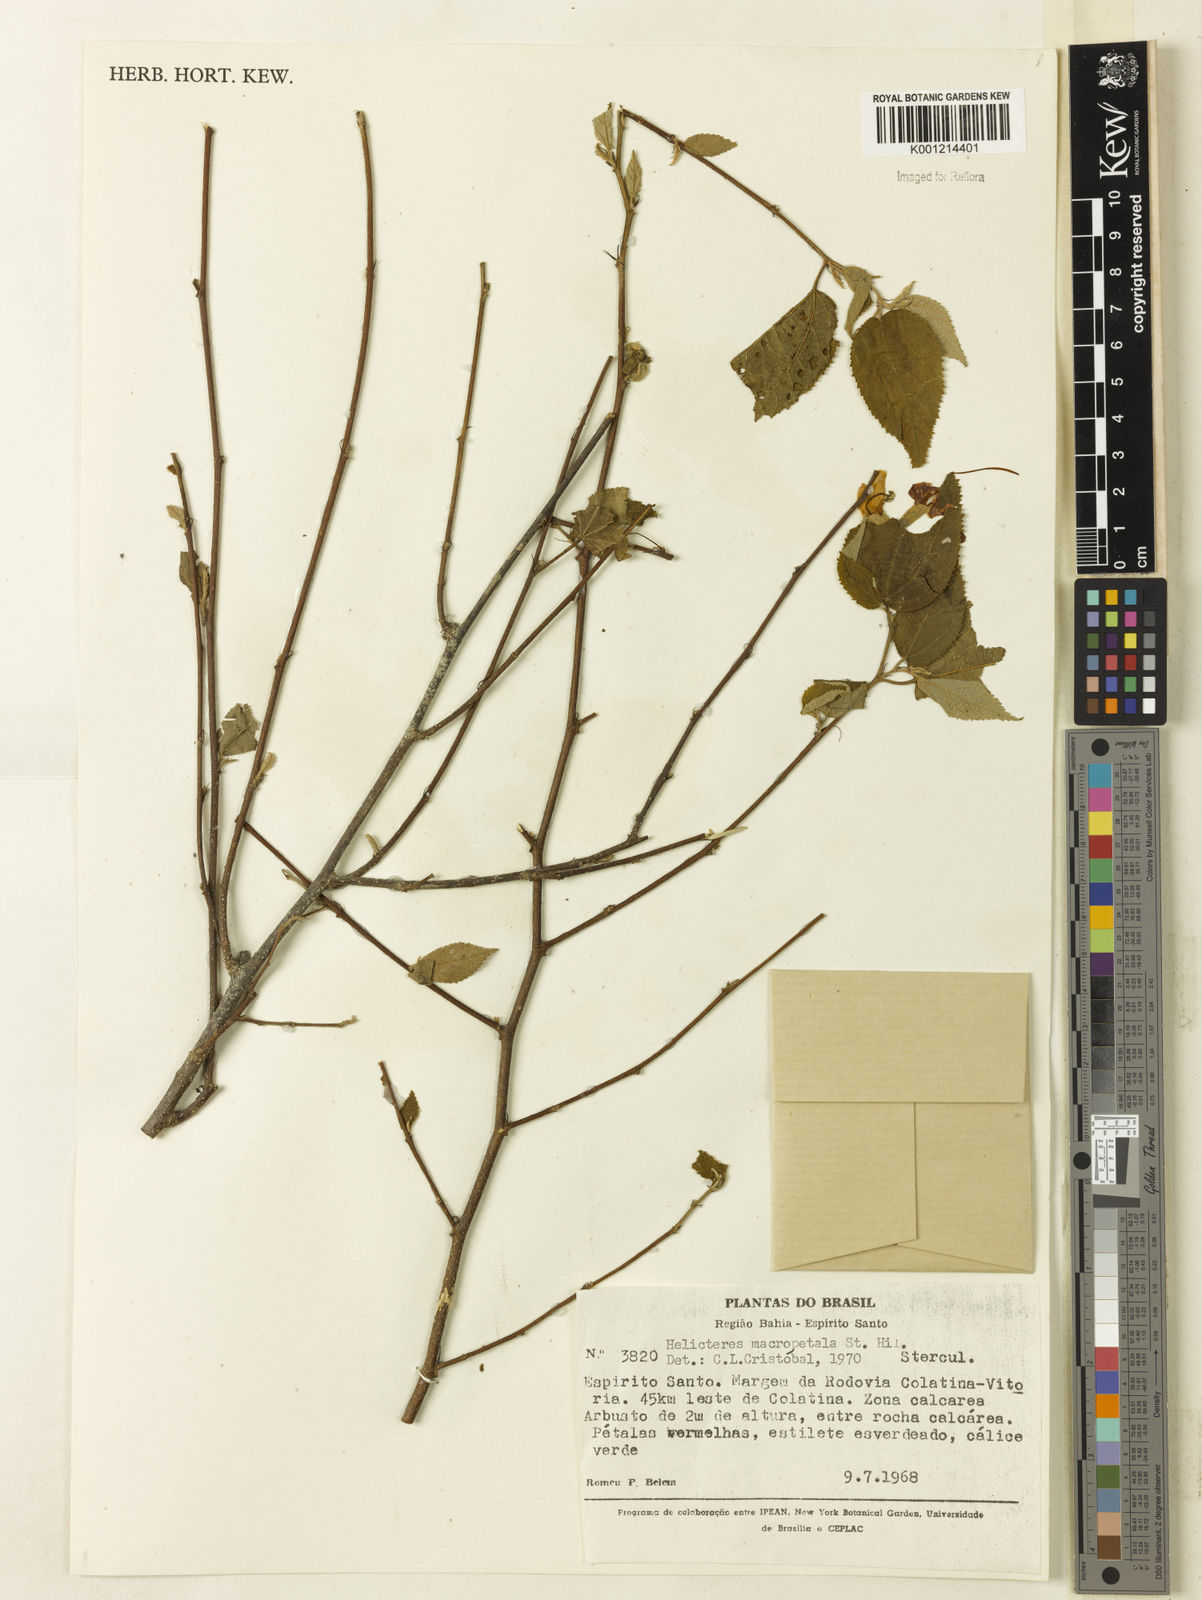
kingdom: Plantae
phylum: Tracheophyta
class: Magnoliopsida
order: Malvales
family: Malvaceae
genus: Helicteres
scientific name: Helicteres
